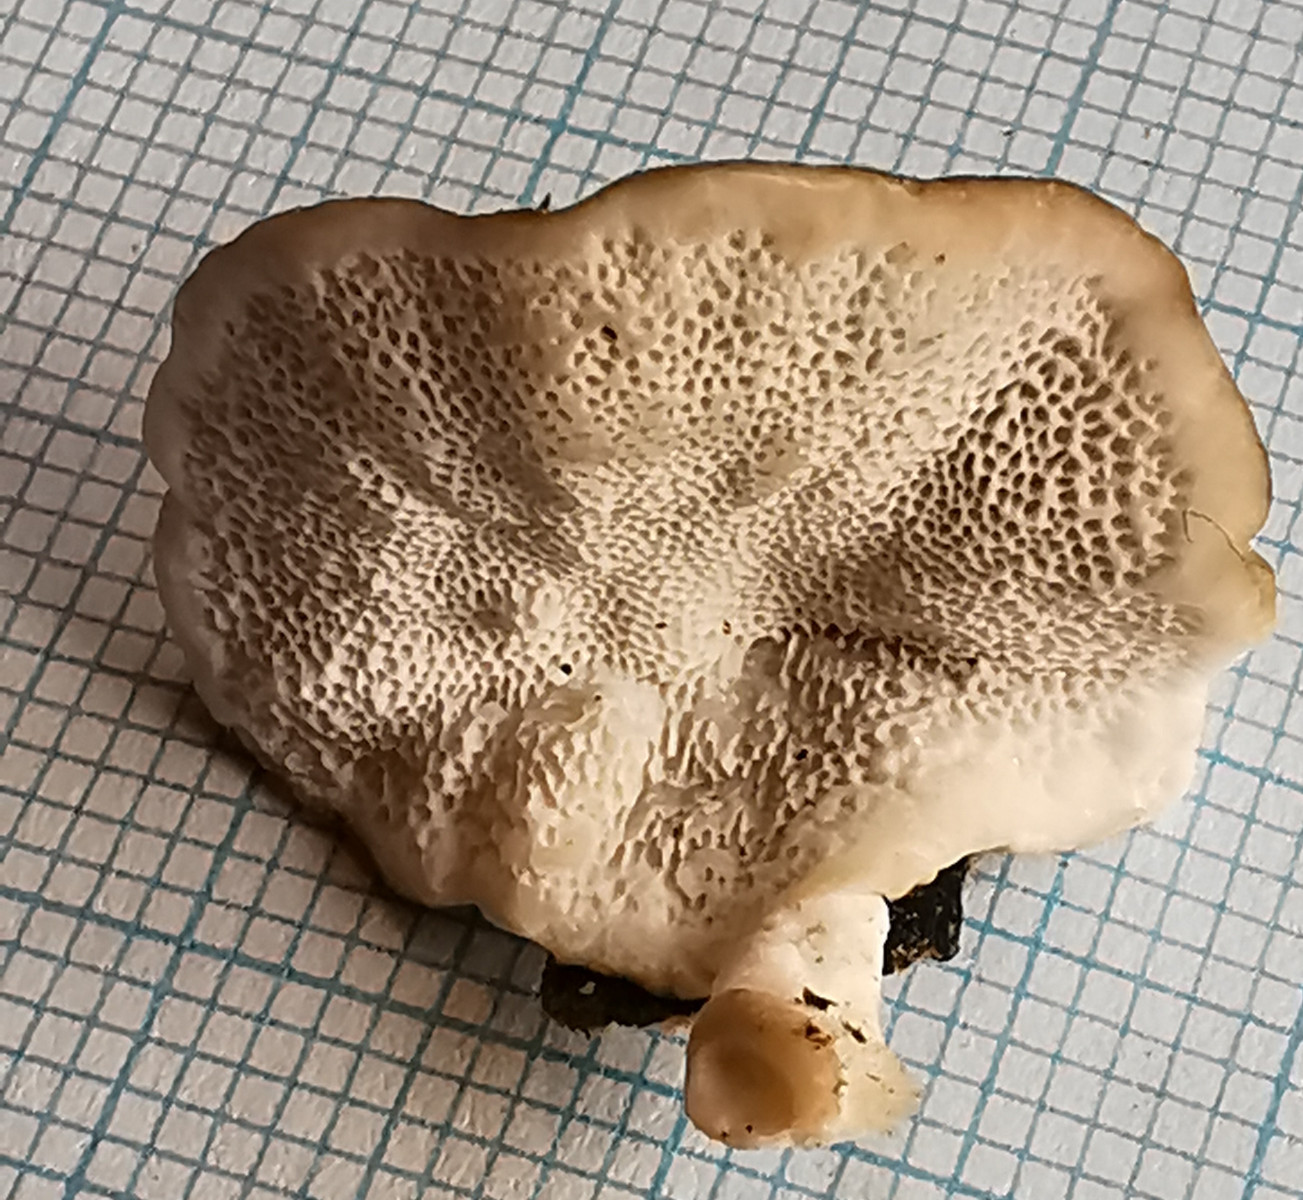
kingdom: Fungi
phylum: Basidiomycota
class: Agaricomycetes
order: Polyporales
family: Polyporaceae
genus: Trametes
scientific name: Trametes versicolor
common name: broget læderporesvamp
